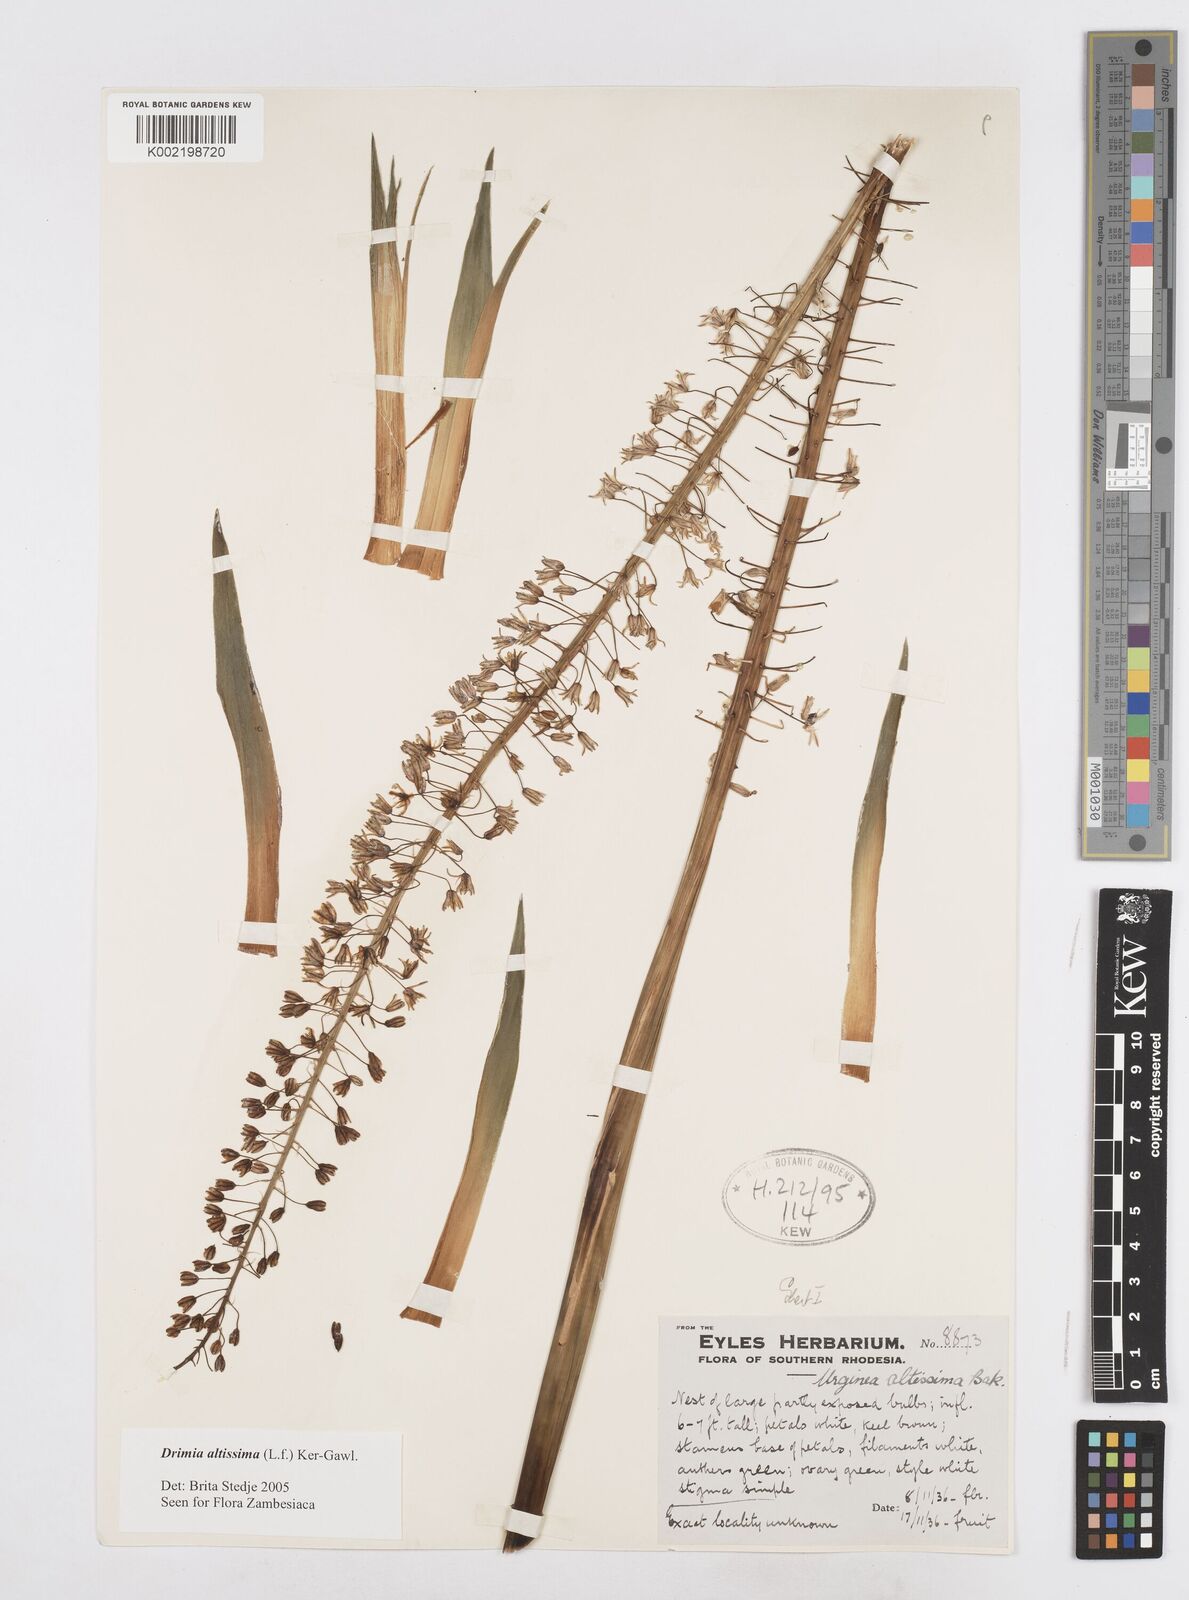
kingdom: Plantae
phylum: Tracheophyta
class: Liliopsida
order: Asparagales
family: Asparagaceae
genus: Drimia
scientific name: Drimia
